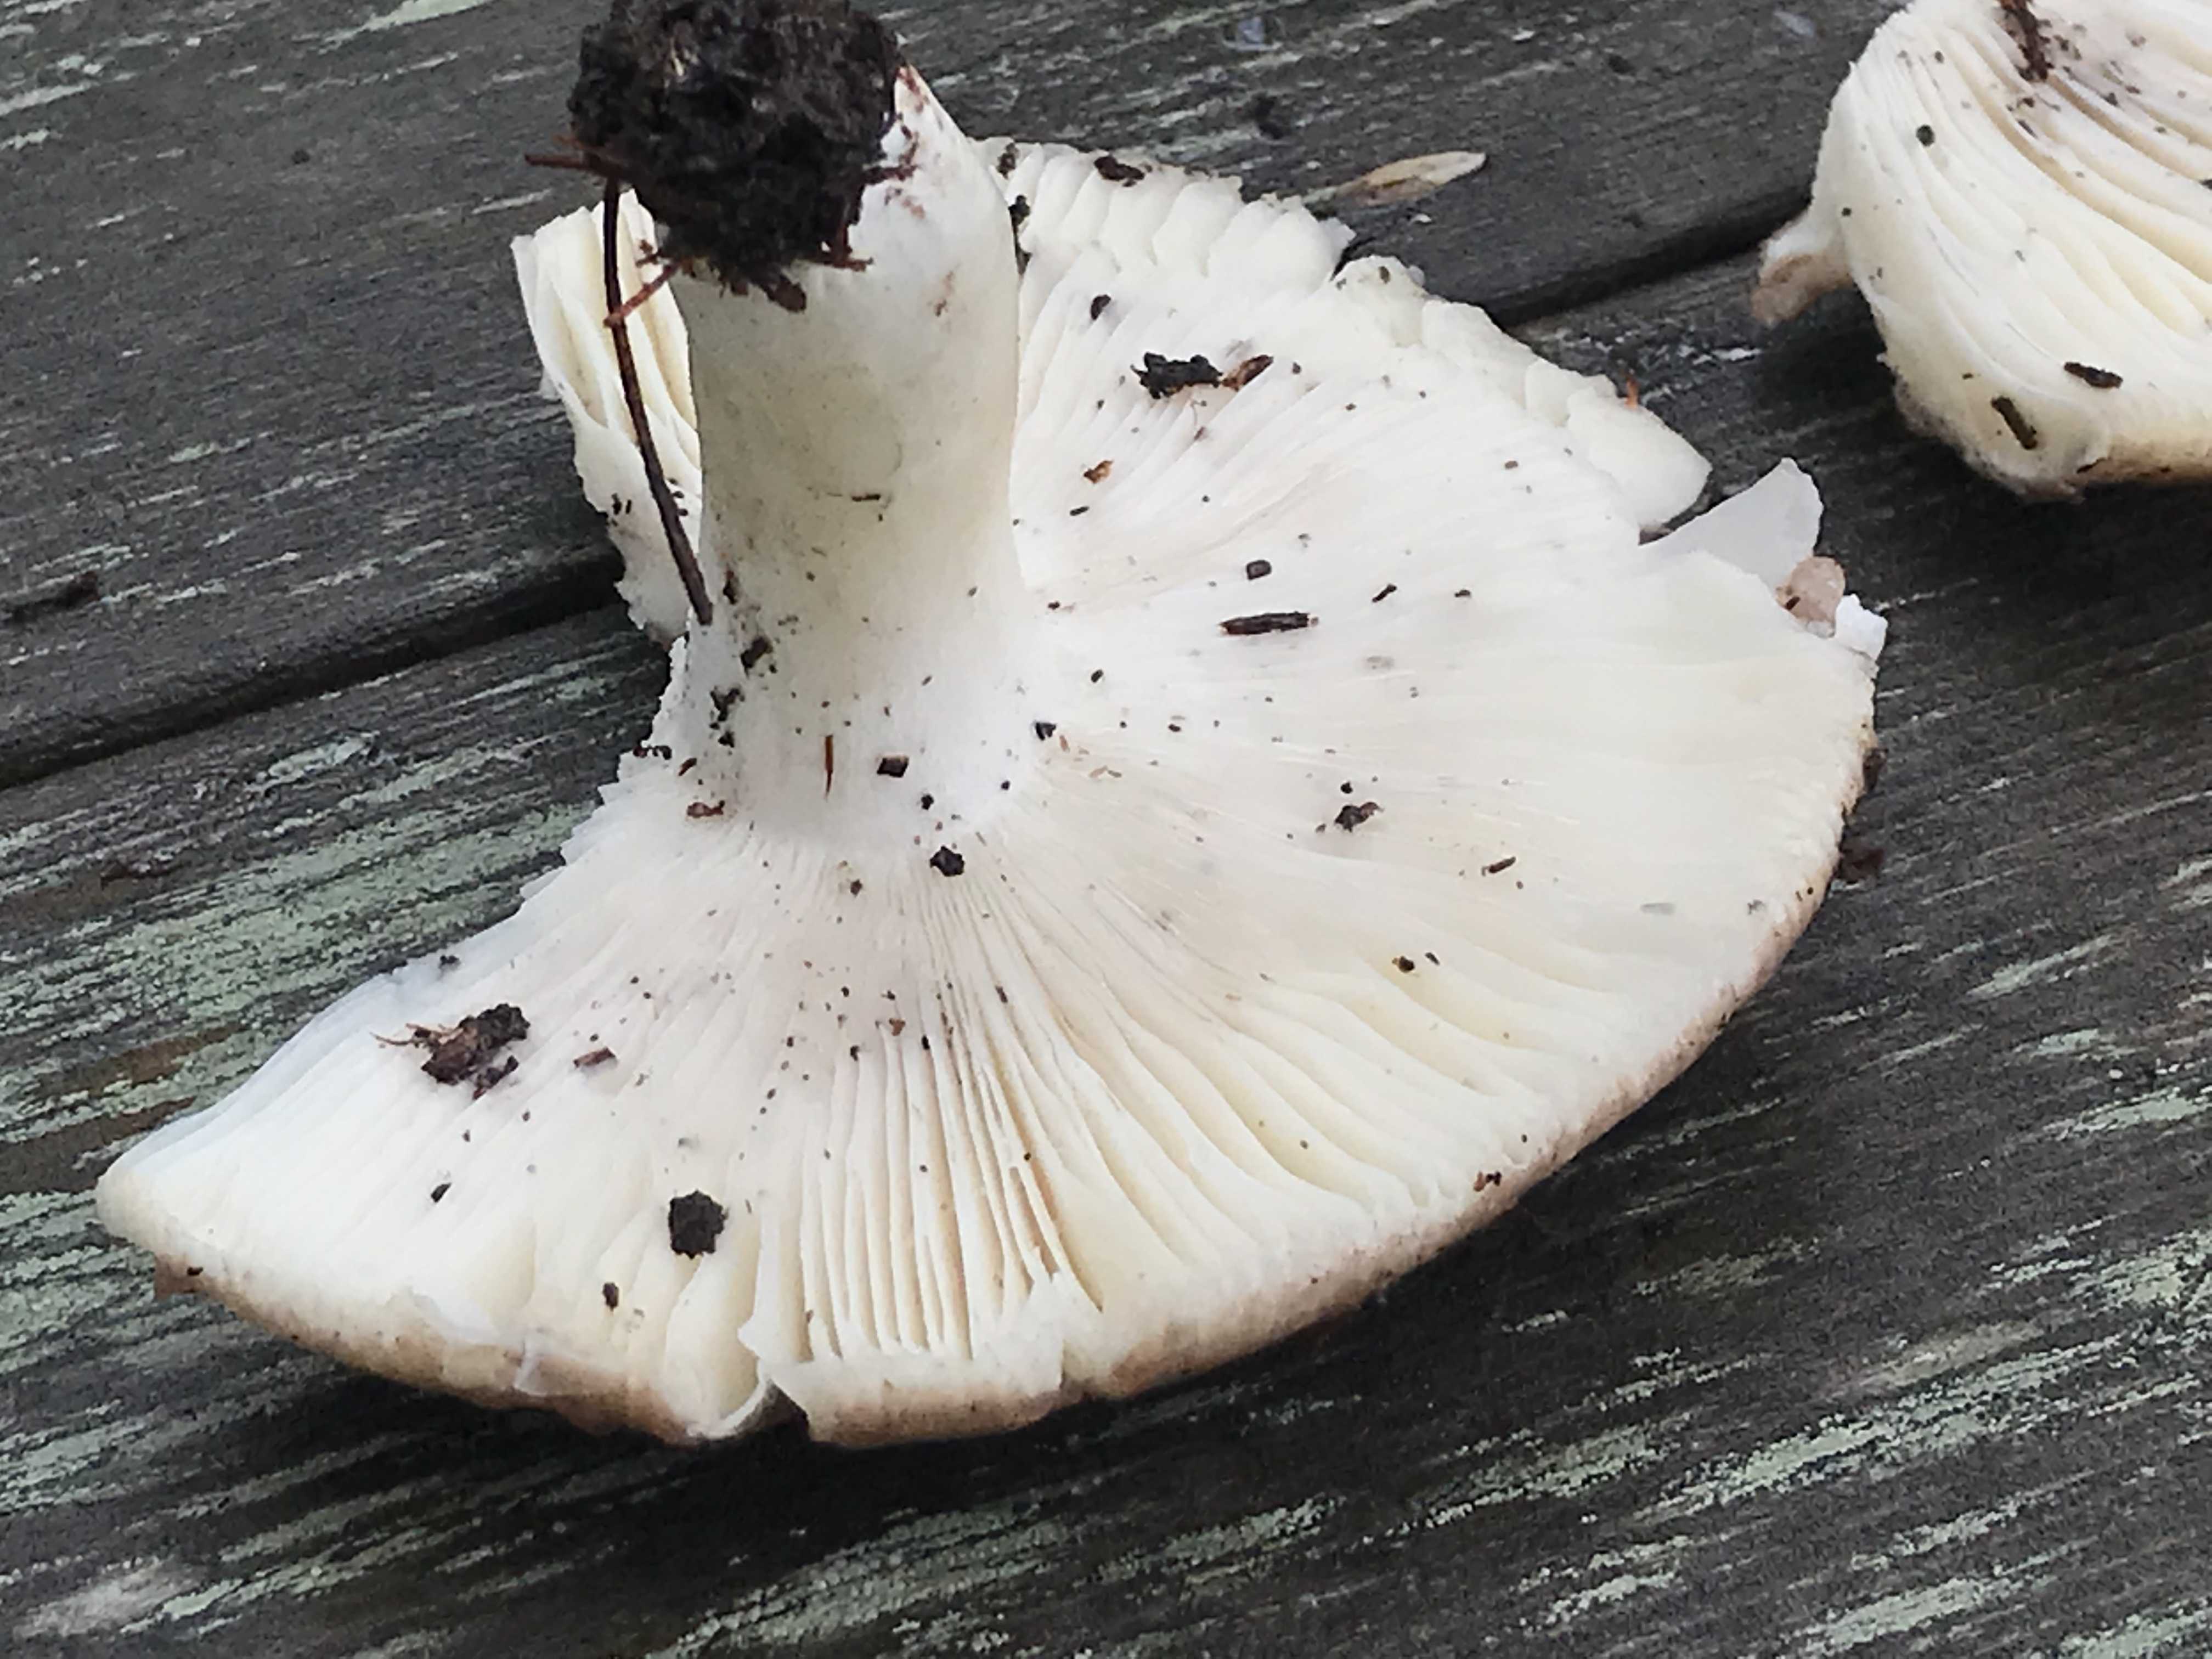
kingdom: Fungi
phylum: Basidiomycota
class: Agaricomycetes
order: Russulales
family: Russulaceae
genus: Russula
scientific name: Russula vesca
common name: spiselig skørhat
